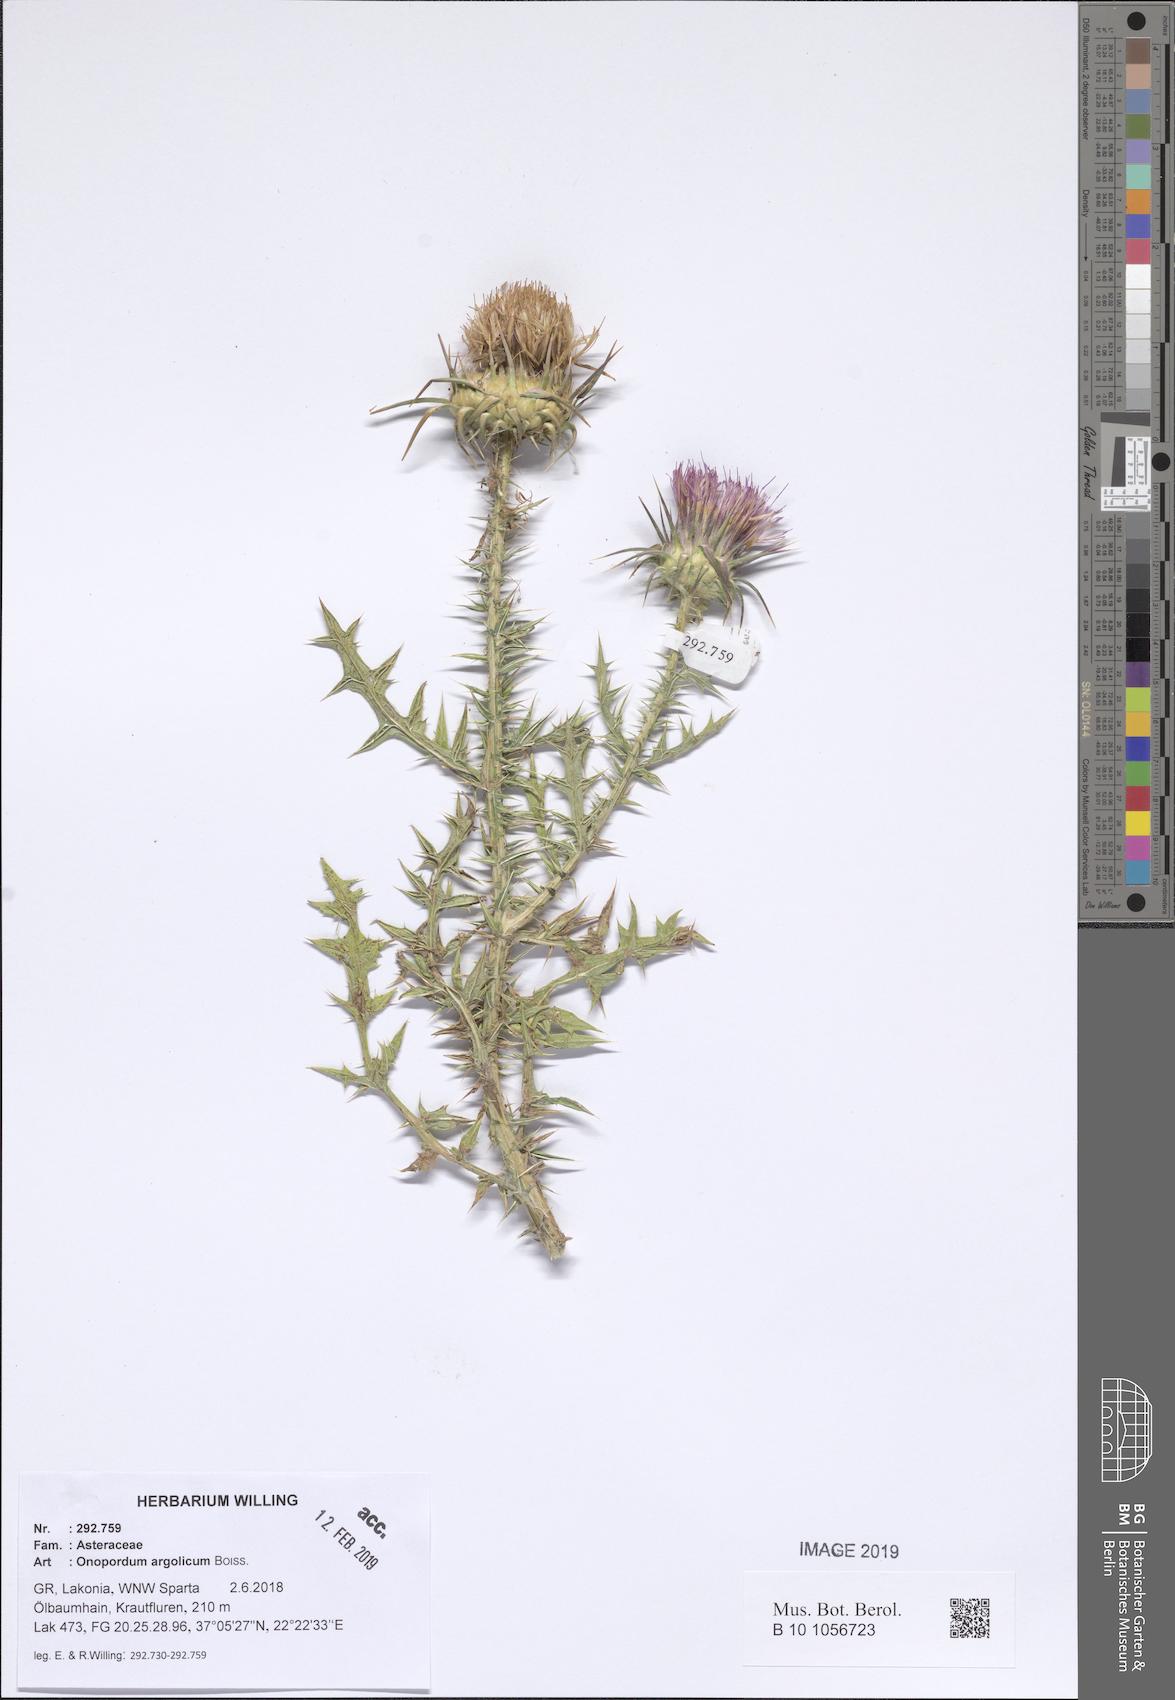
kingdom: Plantae
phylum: Tracheophyta
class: Magnoliopsida
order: Asterales
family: Asteraceae
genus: Onopordum
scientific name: Onopordum tauricum
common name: Bull cottonthistle
